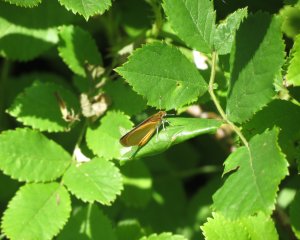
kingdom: Animalia
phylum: Arthropoda
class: Insecta
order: Lepidoptera
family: Hesperiidae
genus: Ancyloxypha
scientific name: Ancyloxypha numitor
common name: Least Skipper
